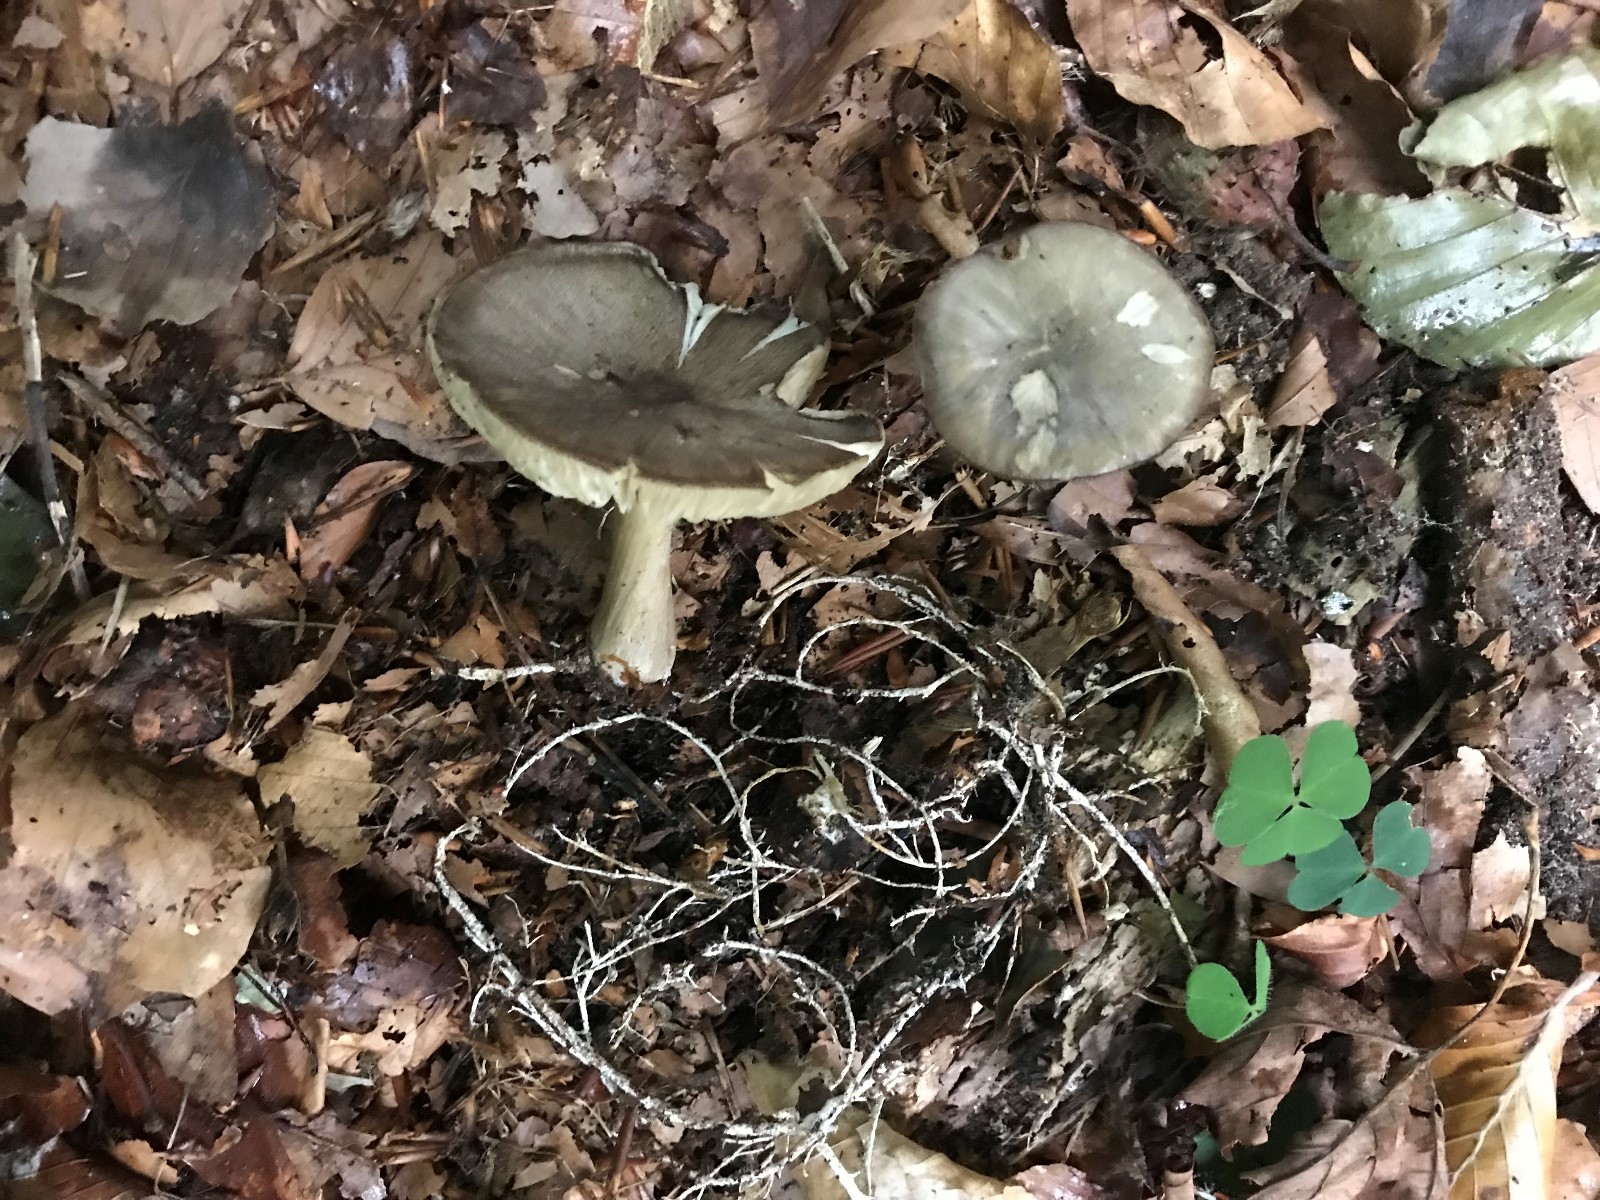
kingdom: Fungi
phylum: Basidiomycota
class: Agaricomycetes
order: Agaricales
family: Tricholomataceae
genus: Megacollybia
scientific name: Megacollybia platyphylla
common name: bredbladet væbnerhat
